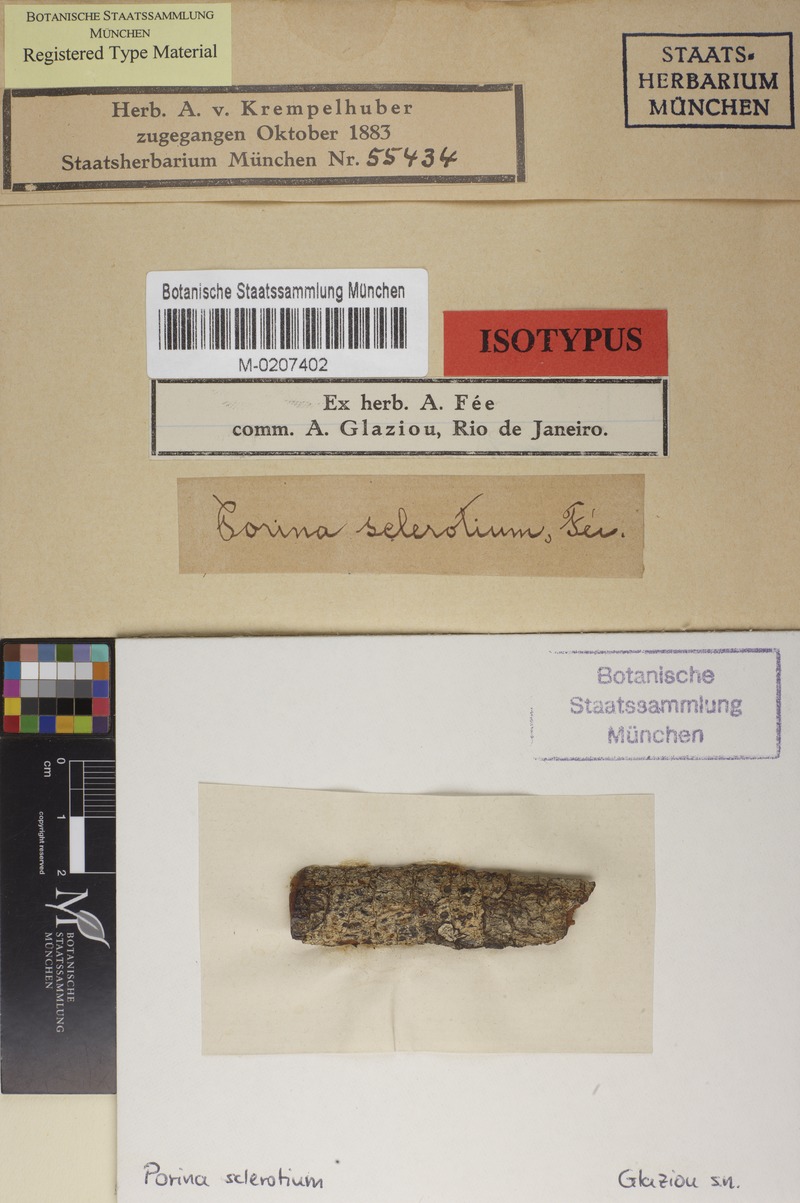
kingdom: Fungi
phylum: Ascomycota
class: Lecanoromycetes
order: Pertusariales
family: Pertusariaceae
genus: Pertusaria
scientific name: Pertusaria
